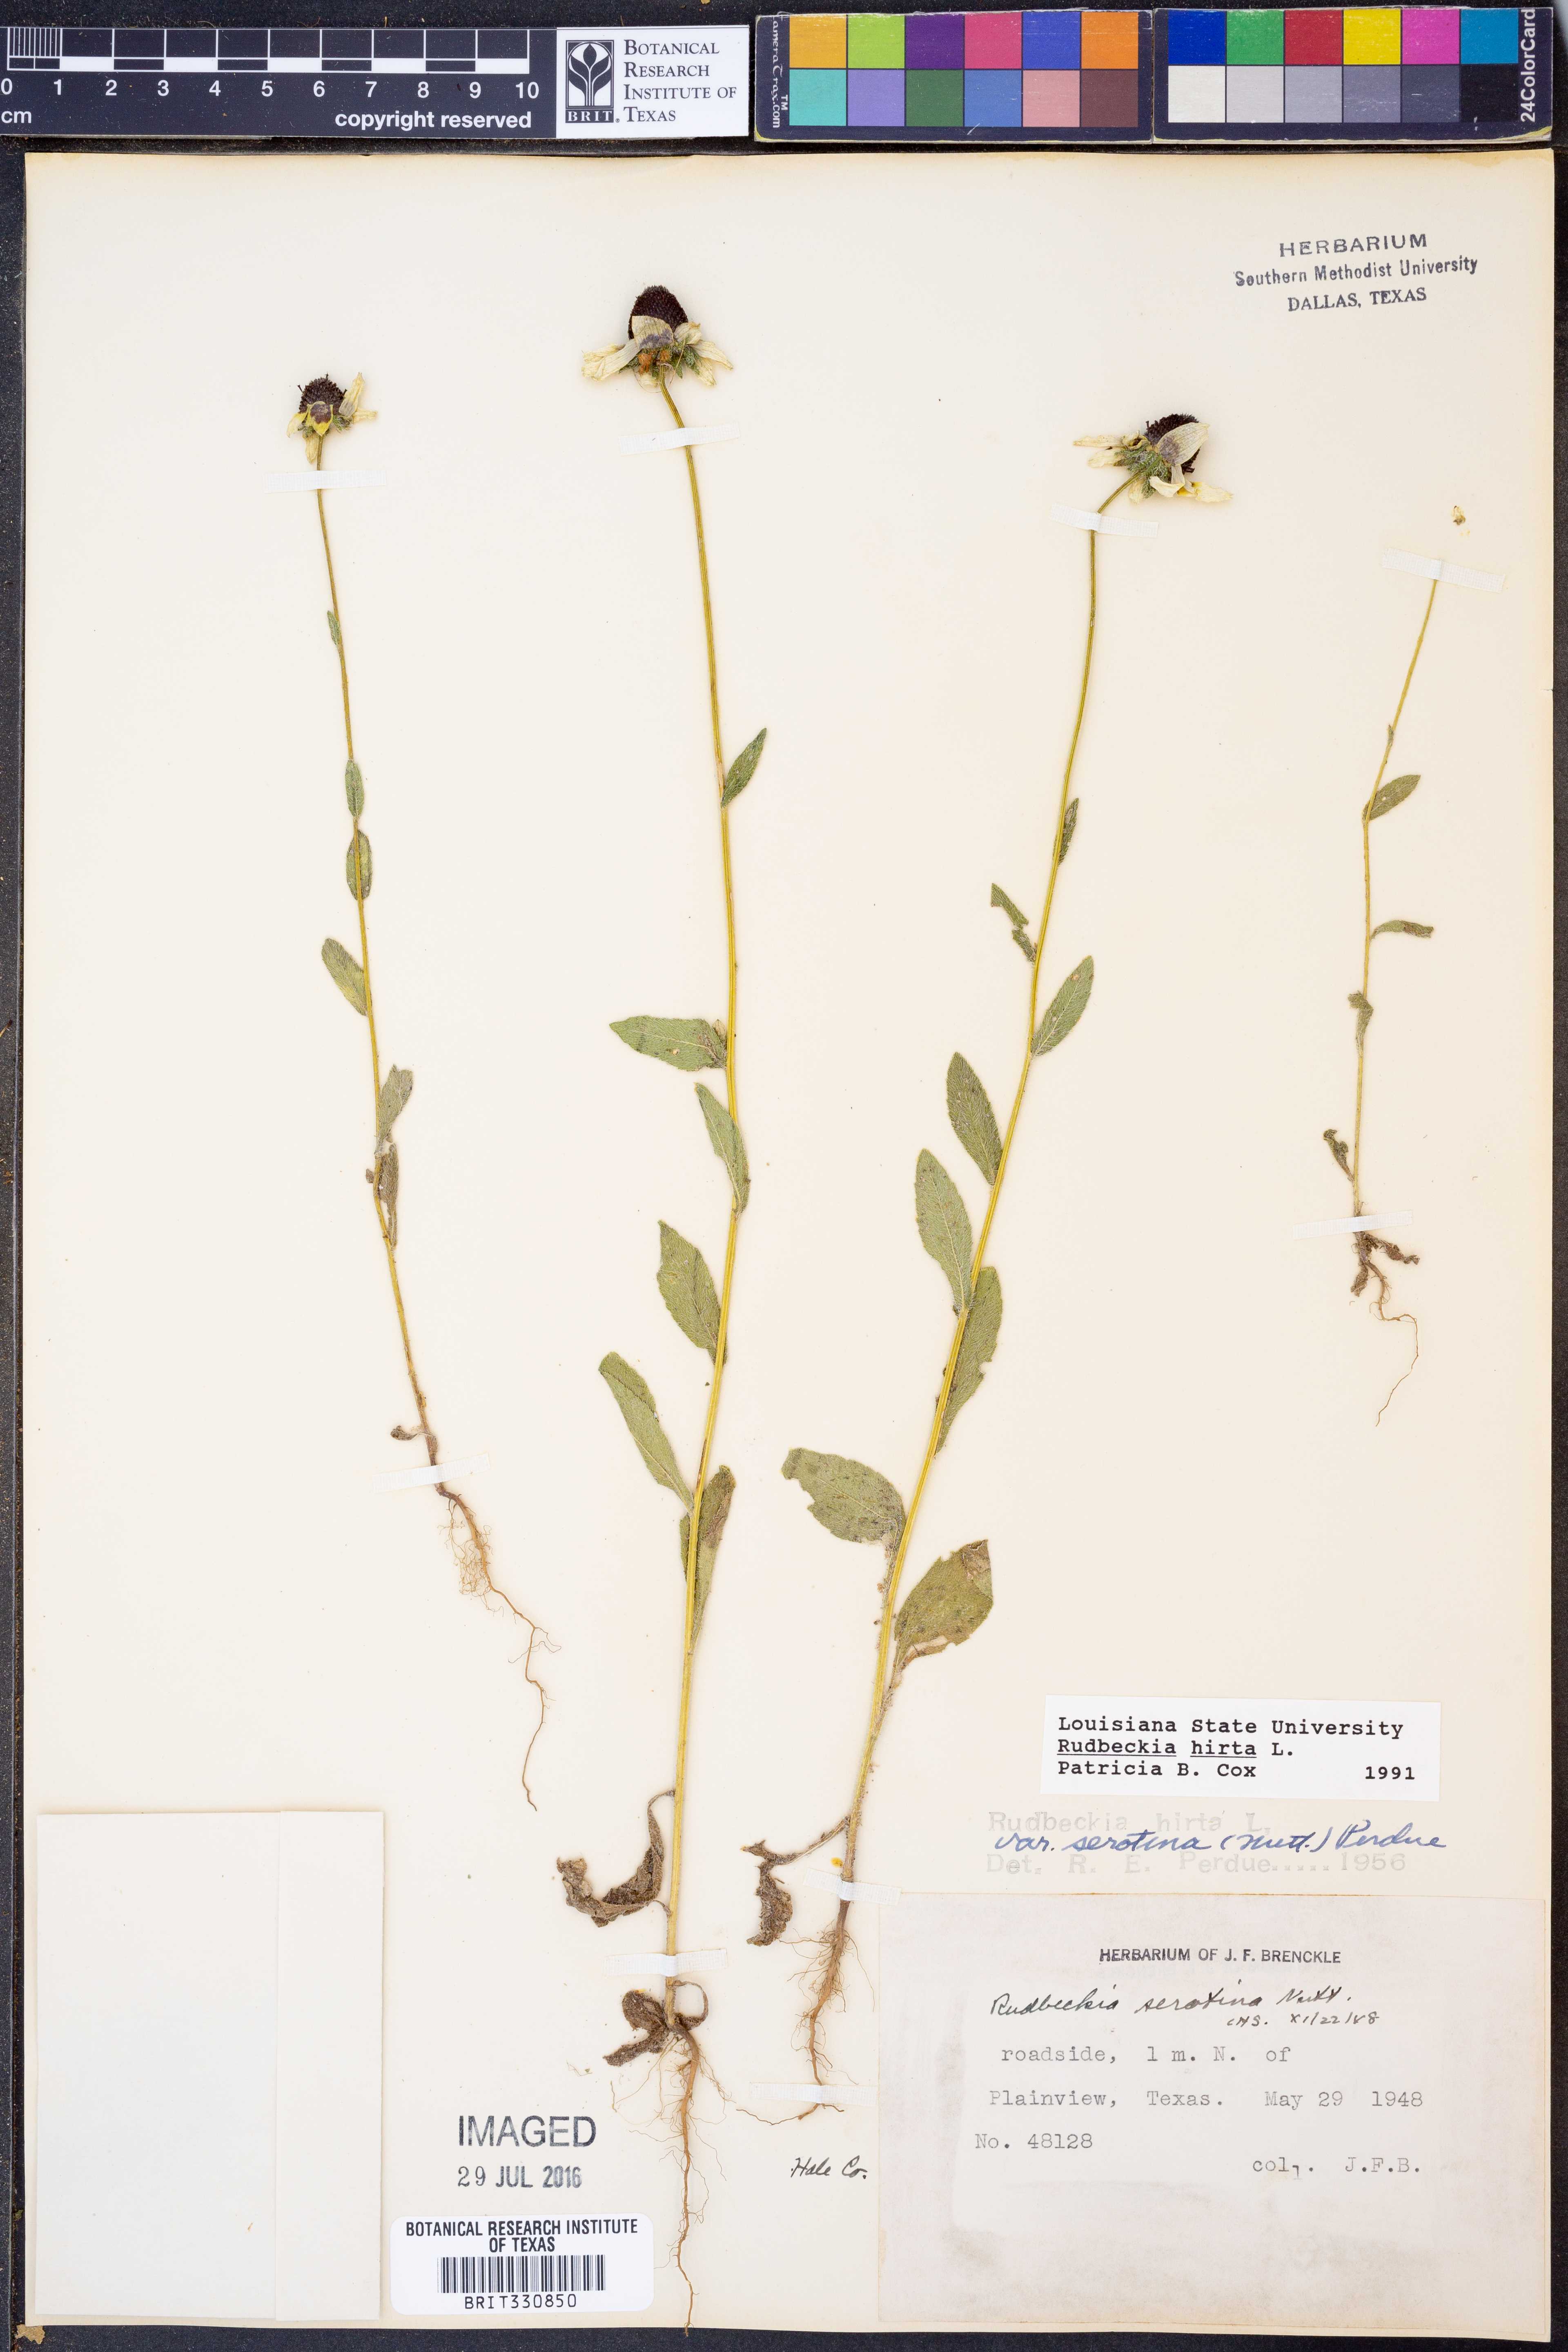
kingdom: Plantae
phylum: Tracheophyta
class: Magnoliopsida
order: Asterales
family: Asteraceae
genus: Rudbeckia
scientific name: Rudbeckia hirta
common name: Black-eyed-susan
